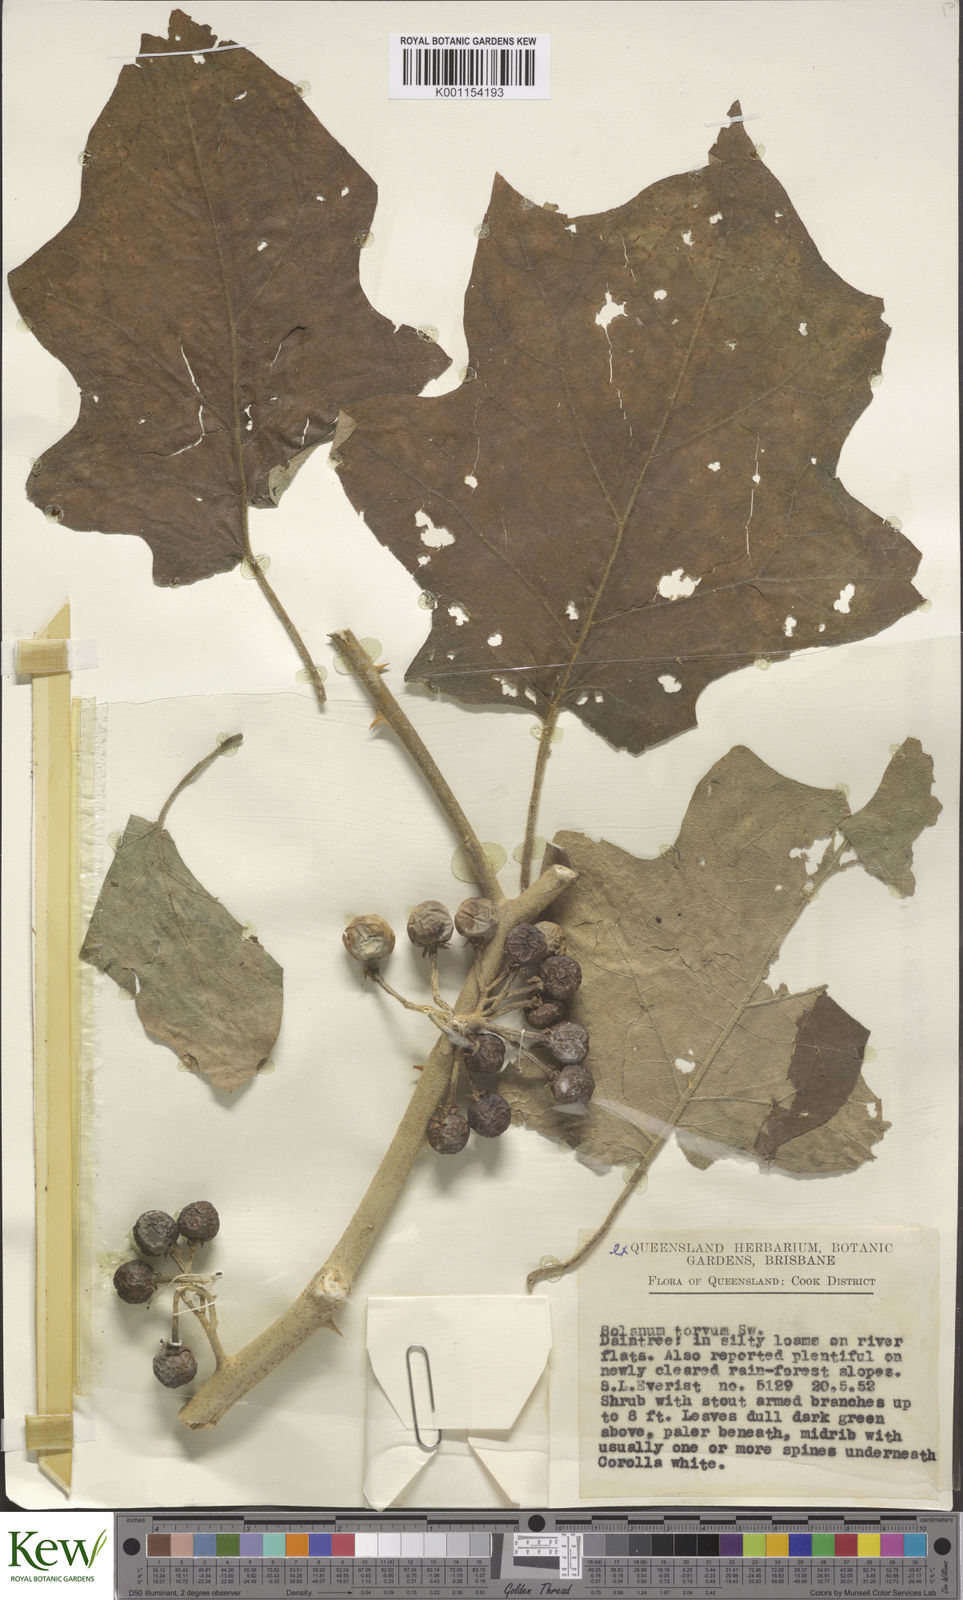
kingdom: Plantae
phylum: Tracheophyta
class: Magnoliopsida
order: Solanales
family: Solanaceae
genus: Solanum
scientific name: Solanum torvum
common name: Turkey berry
